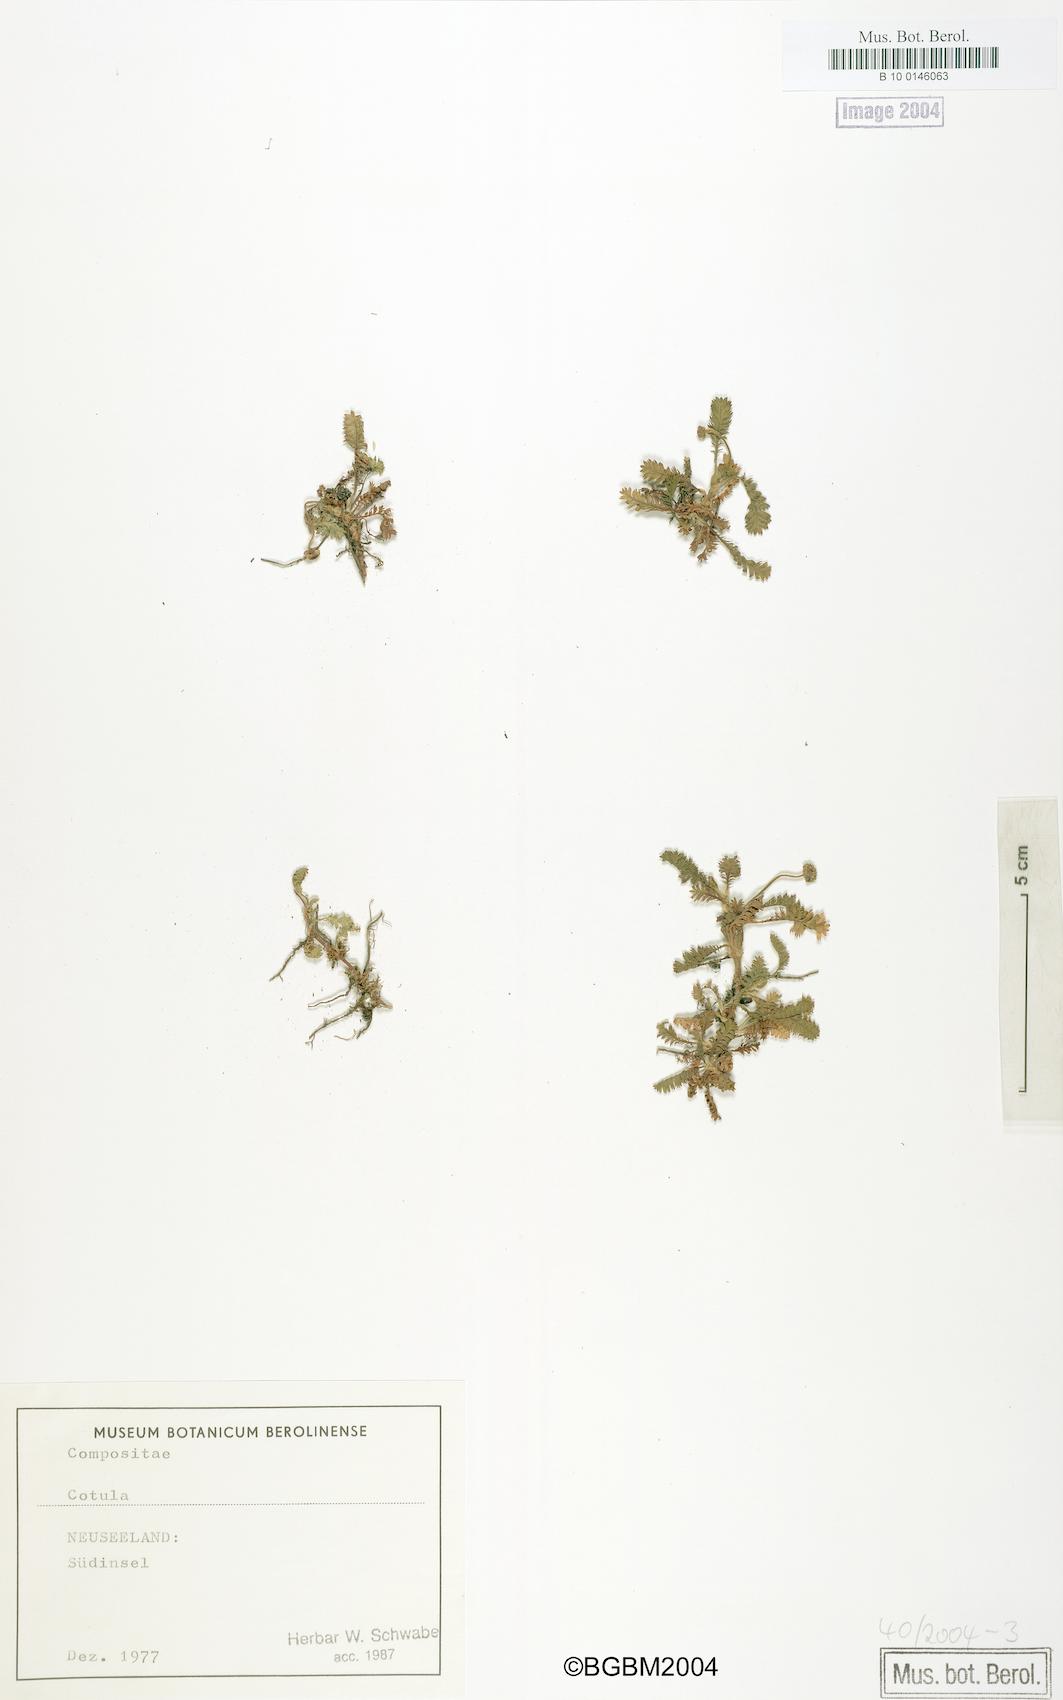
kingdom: Plantae
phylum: Tracheophyta
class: Magnoliopsida
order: Asterales
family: Asteraceae
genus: Cotula
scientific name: Cotula
